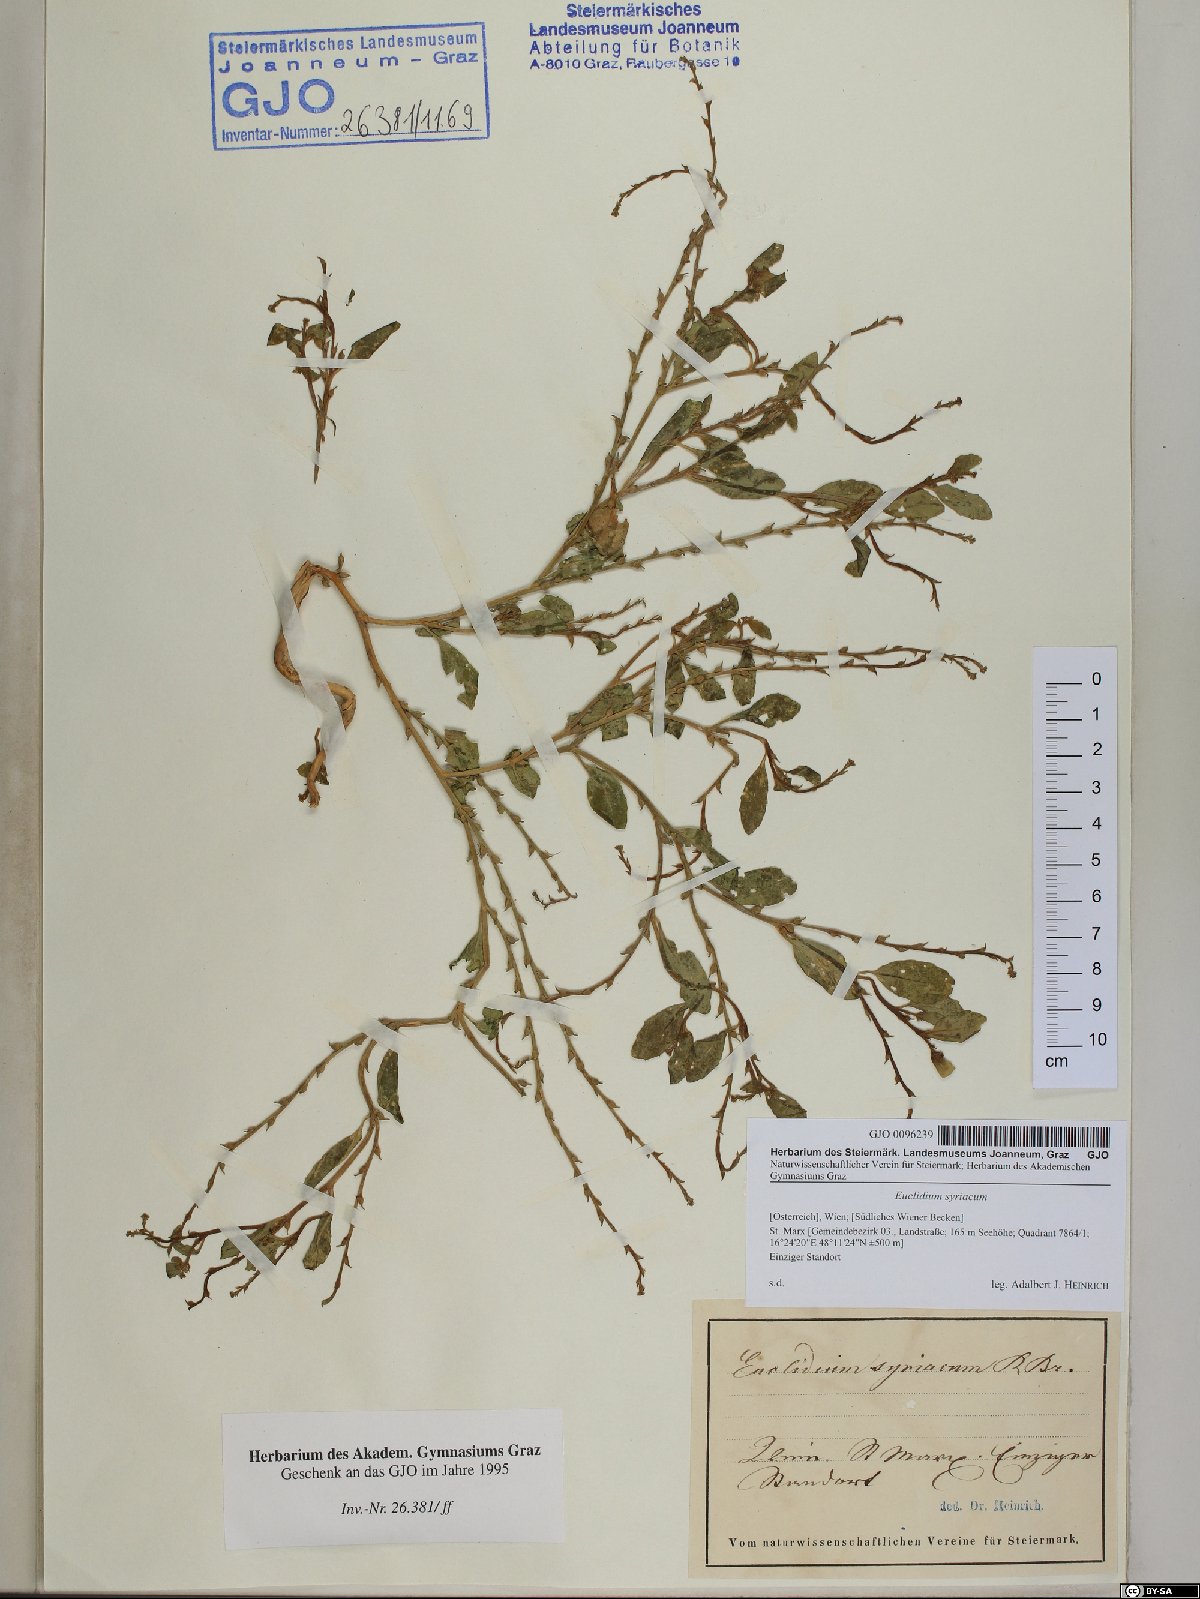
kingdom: Plantae
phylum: Tracheophyta
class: Magnoliopsida
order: Brassicales
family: Brassicaceae
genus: Euclidium
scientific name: Euclidium syriacum
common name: Syrian mustard
